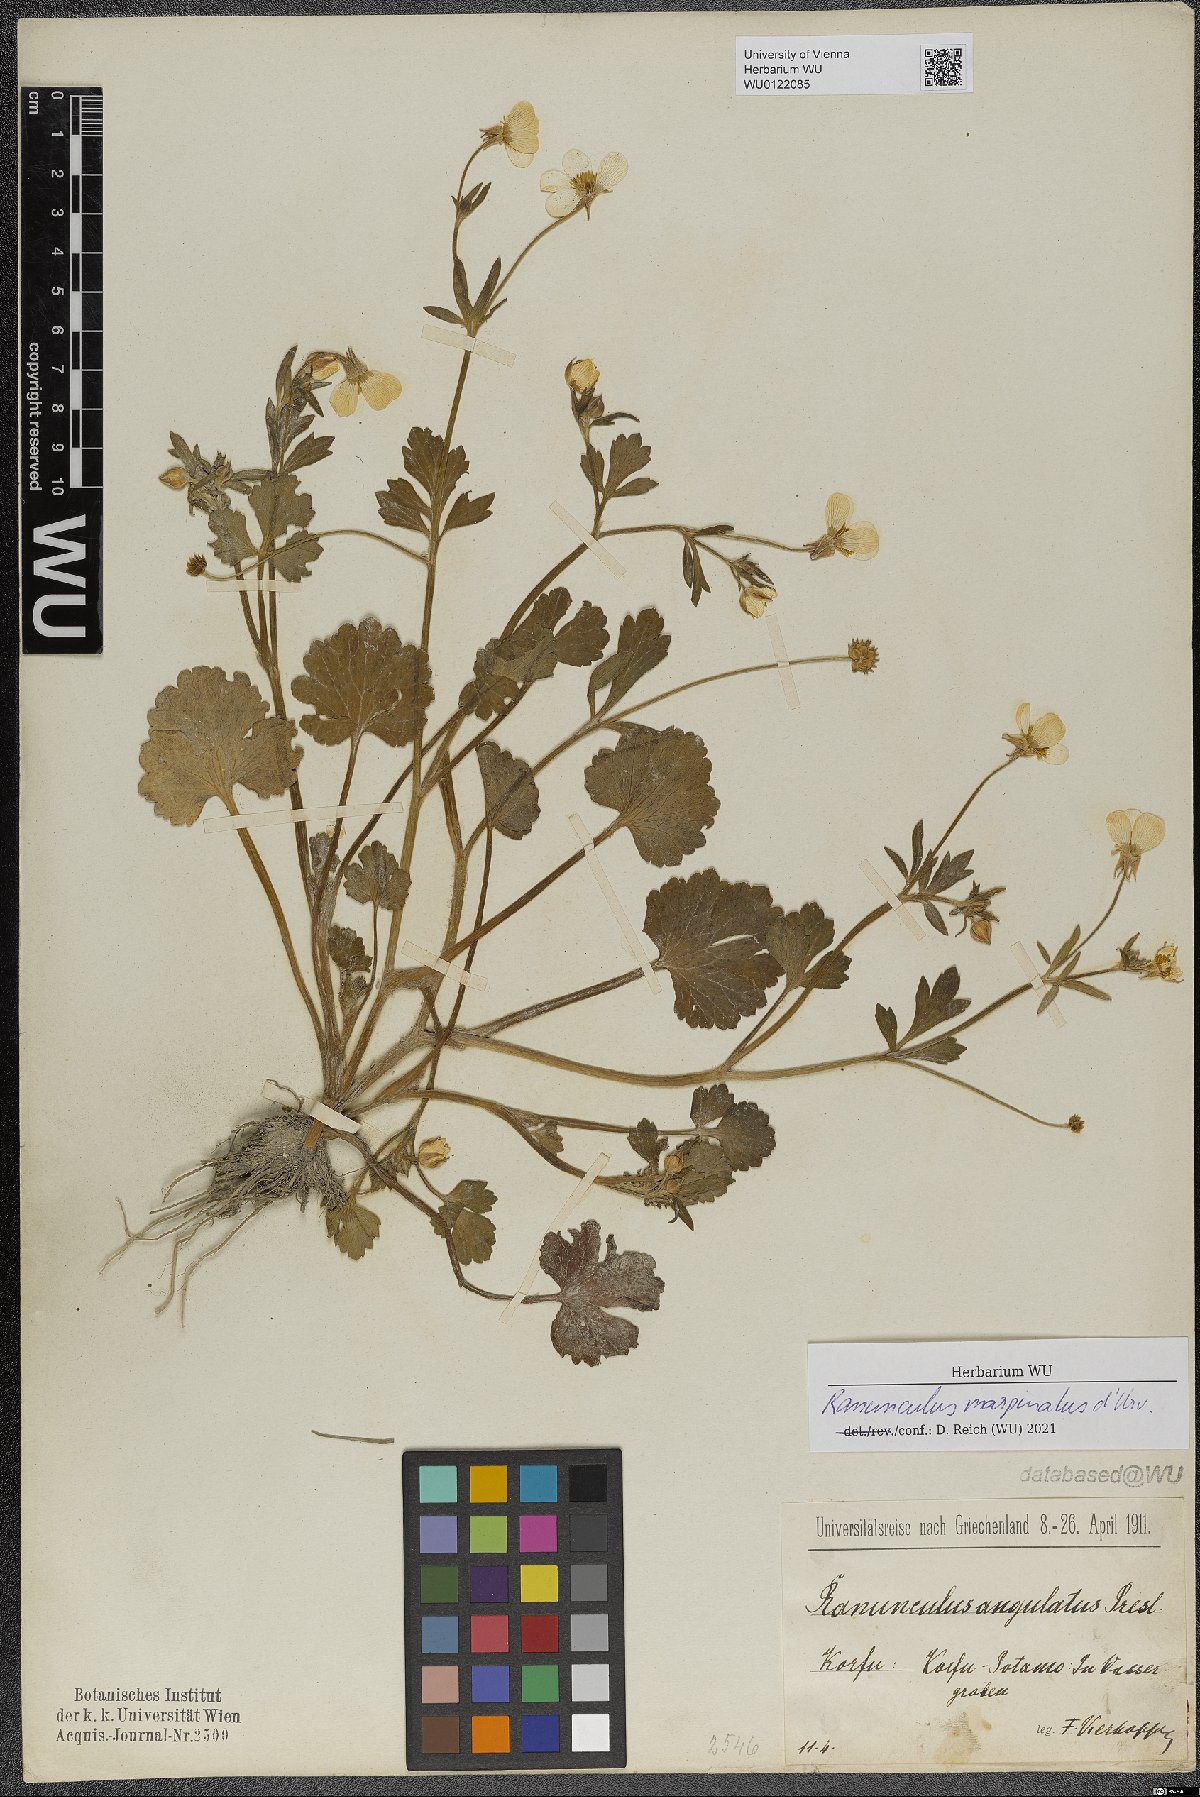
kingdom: Plantae
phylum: Tracheophyta
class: Magnoliopsida
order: Ranunculales
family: Ranunculaceae
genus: Ranunculus
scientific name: Ranunculus marginatus
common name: St. martin's buttercup
